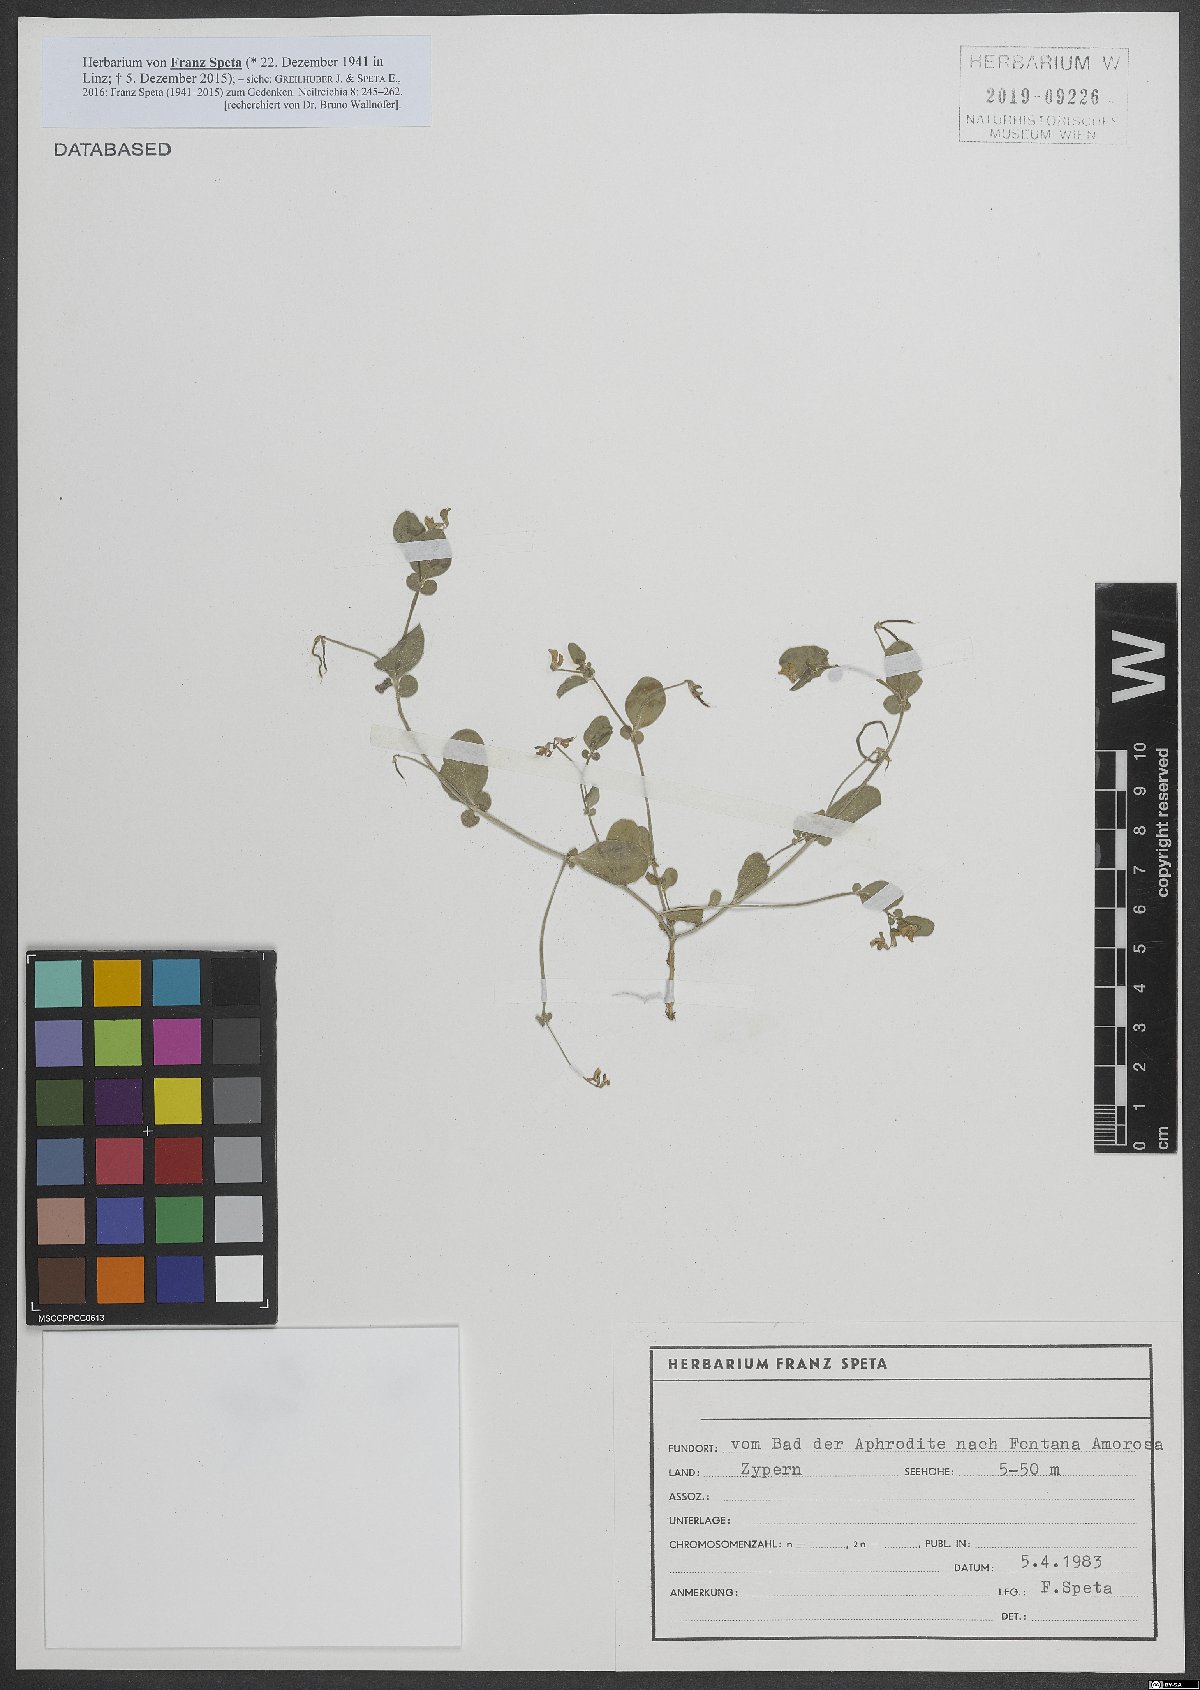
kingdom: Plantae
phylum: Tracheophyta
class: Magnoliopsida
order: Fabales
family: Fabaceae
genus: Coronilla
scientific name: Coronilla scorpioides
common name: Annual scorpion-vetch
